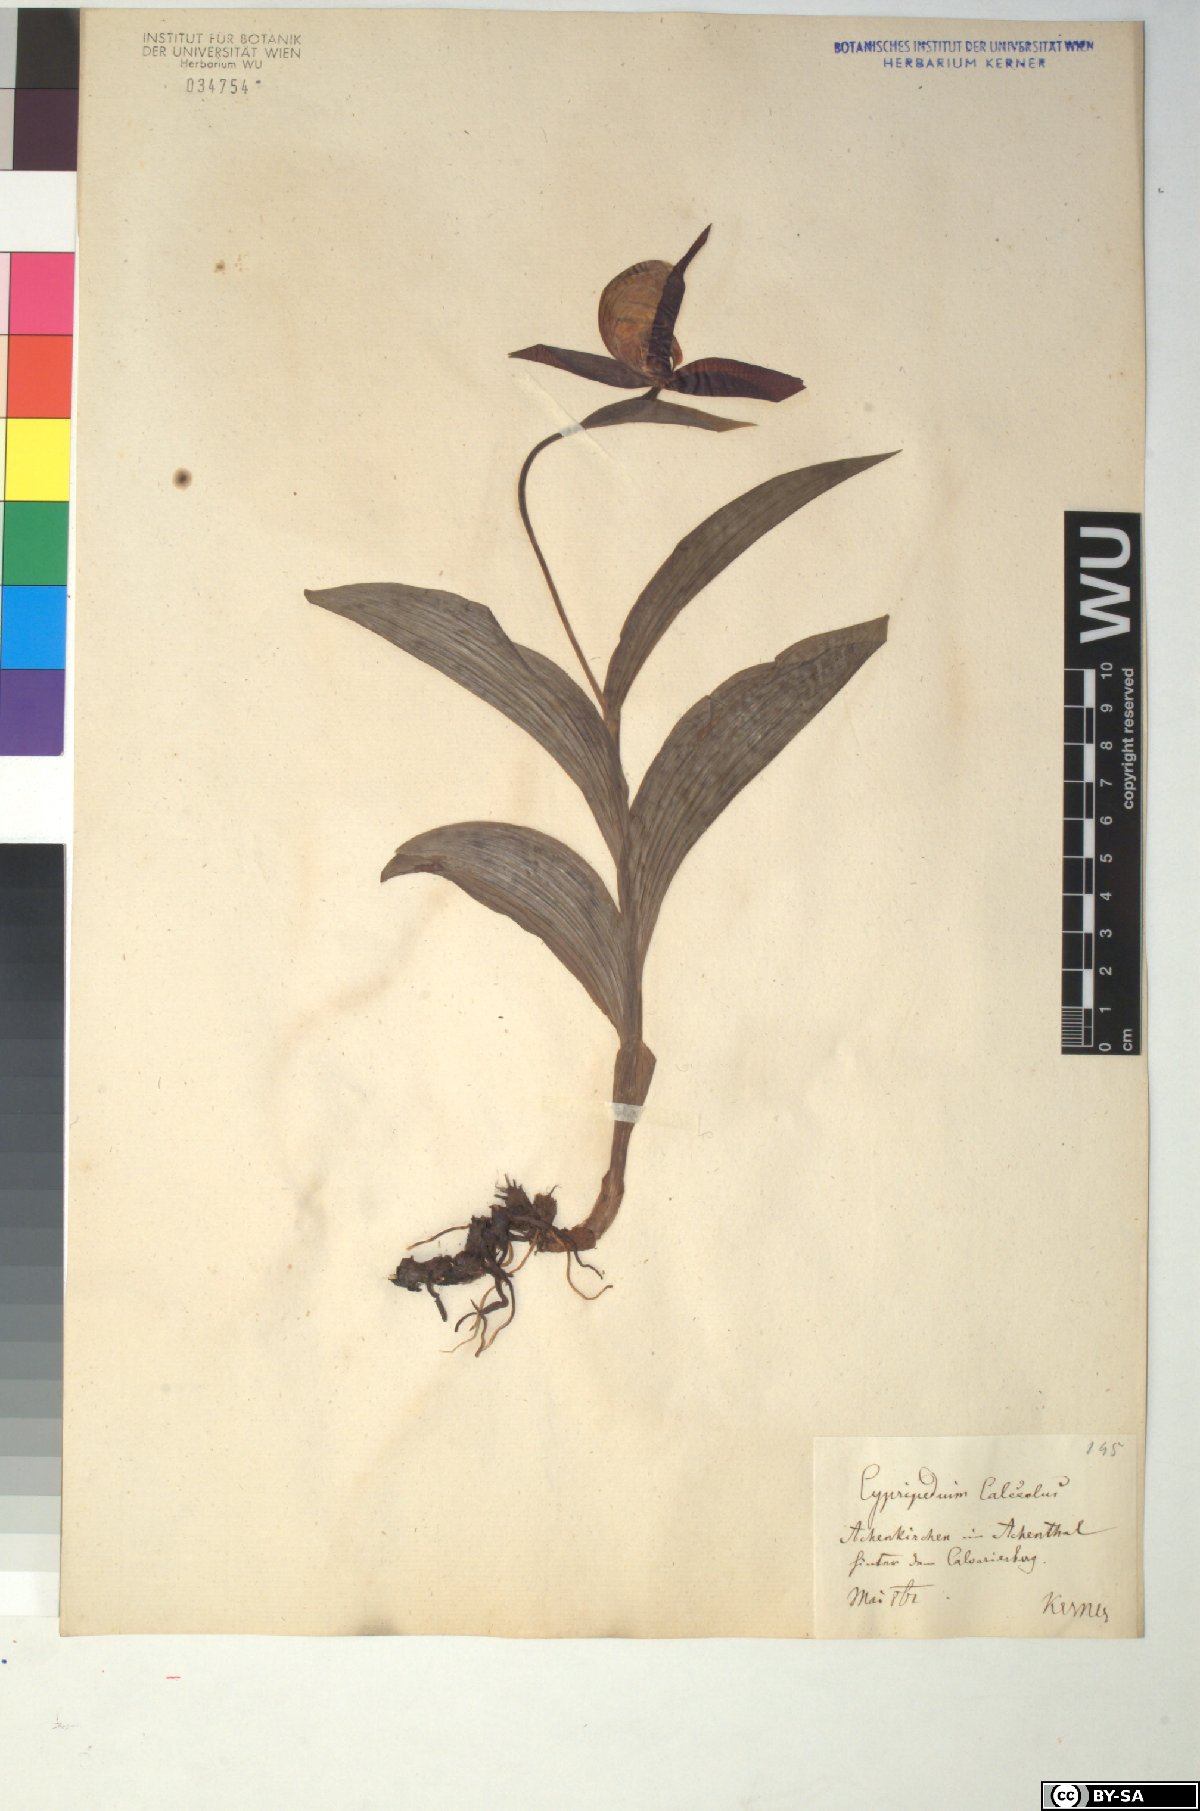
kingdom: Plantae
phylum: Tracheophyta
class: Liliopsida
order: Asparagales
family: Orchidaceae
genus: Cypripedium
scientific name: Cypripedium calceolus
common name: Lady's-slipper
